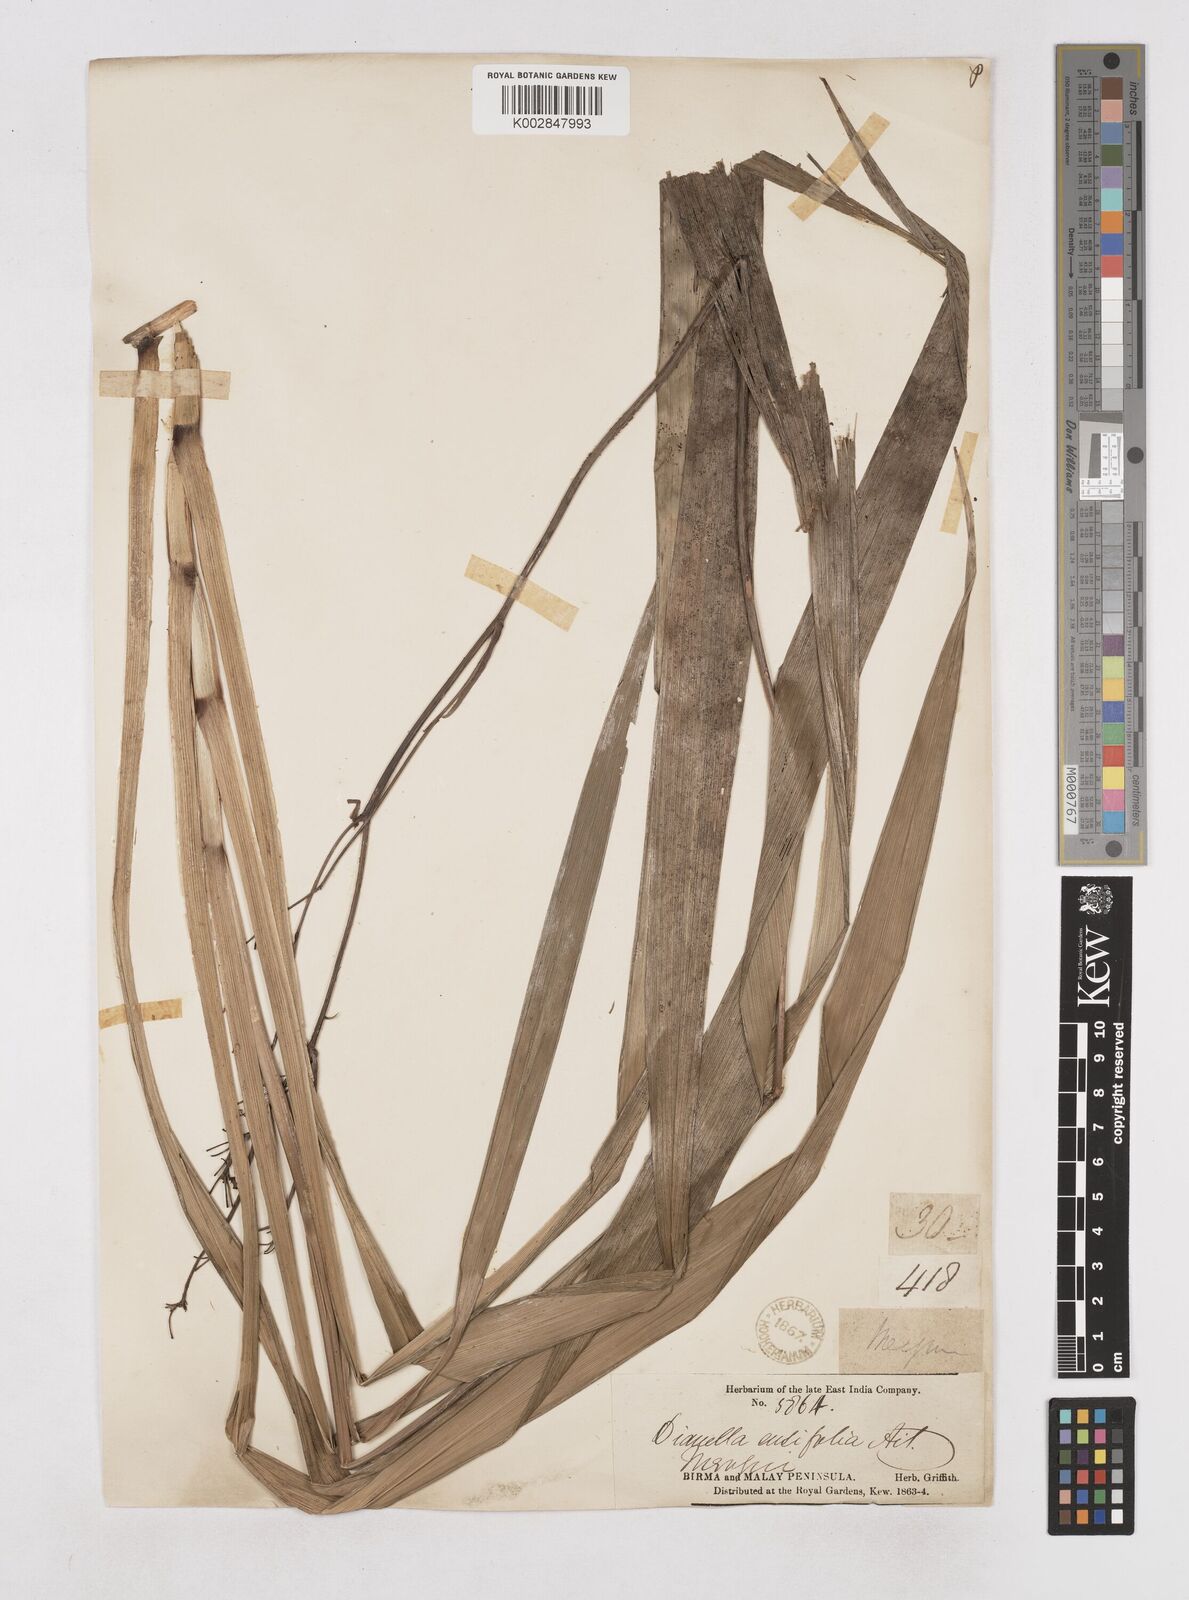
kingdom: Plantae
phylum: Tracheophyta
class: Liliopsida
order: Asparagales
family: Asphodelaceae
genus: Dianella
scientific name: Dianella ensifolia
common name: New zealand lilyplant
